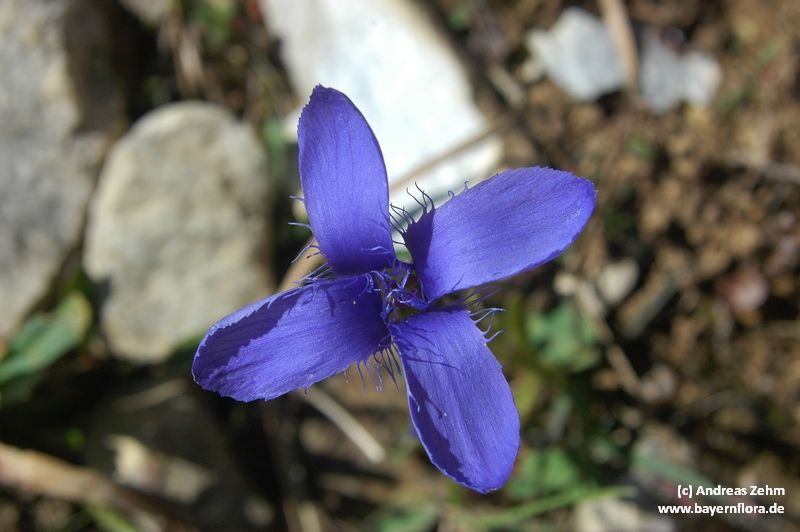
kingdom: Plantae
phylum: Tracheophyta
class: Magnoliopsida
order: Gentianales
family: Gentianaceae
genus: Gentianopsis
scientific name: Gentianopsis ciliata
